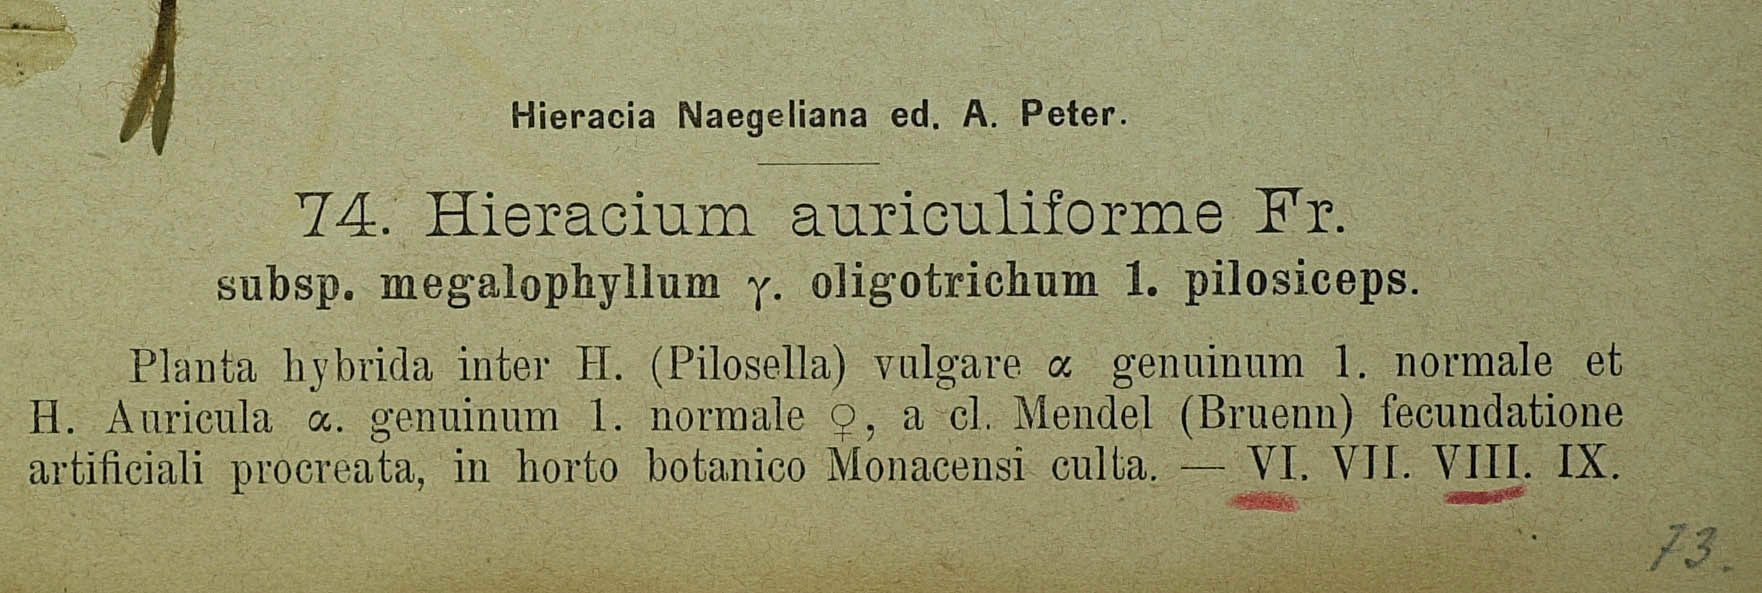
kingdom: Plantae
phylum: Tracheophyta
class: Magnoliopsida
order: Asterales
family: Asteraceae
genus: Pilosella
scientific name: Pilosella schultesii
